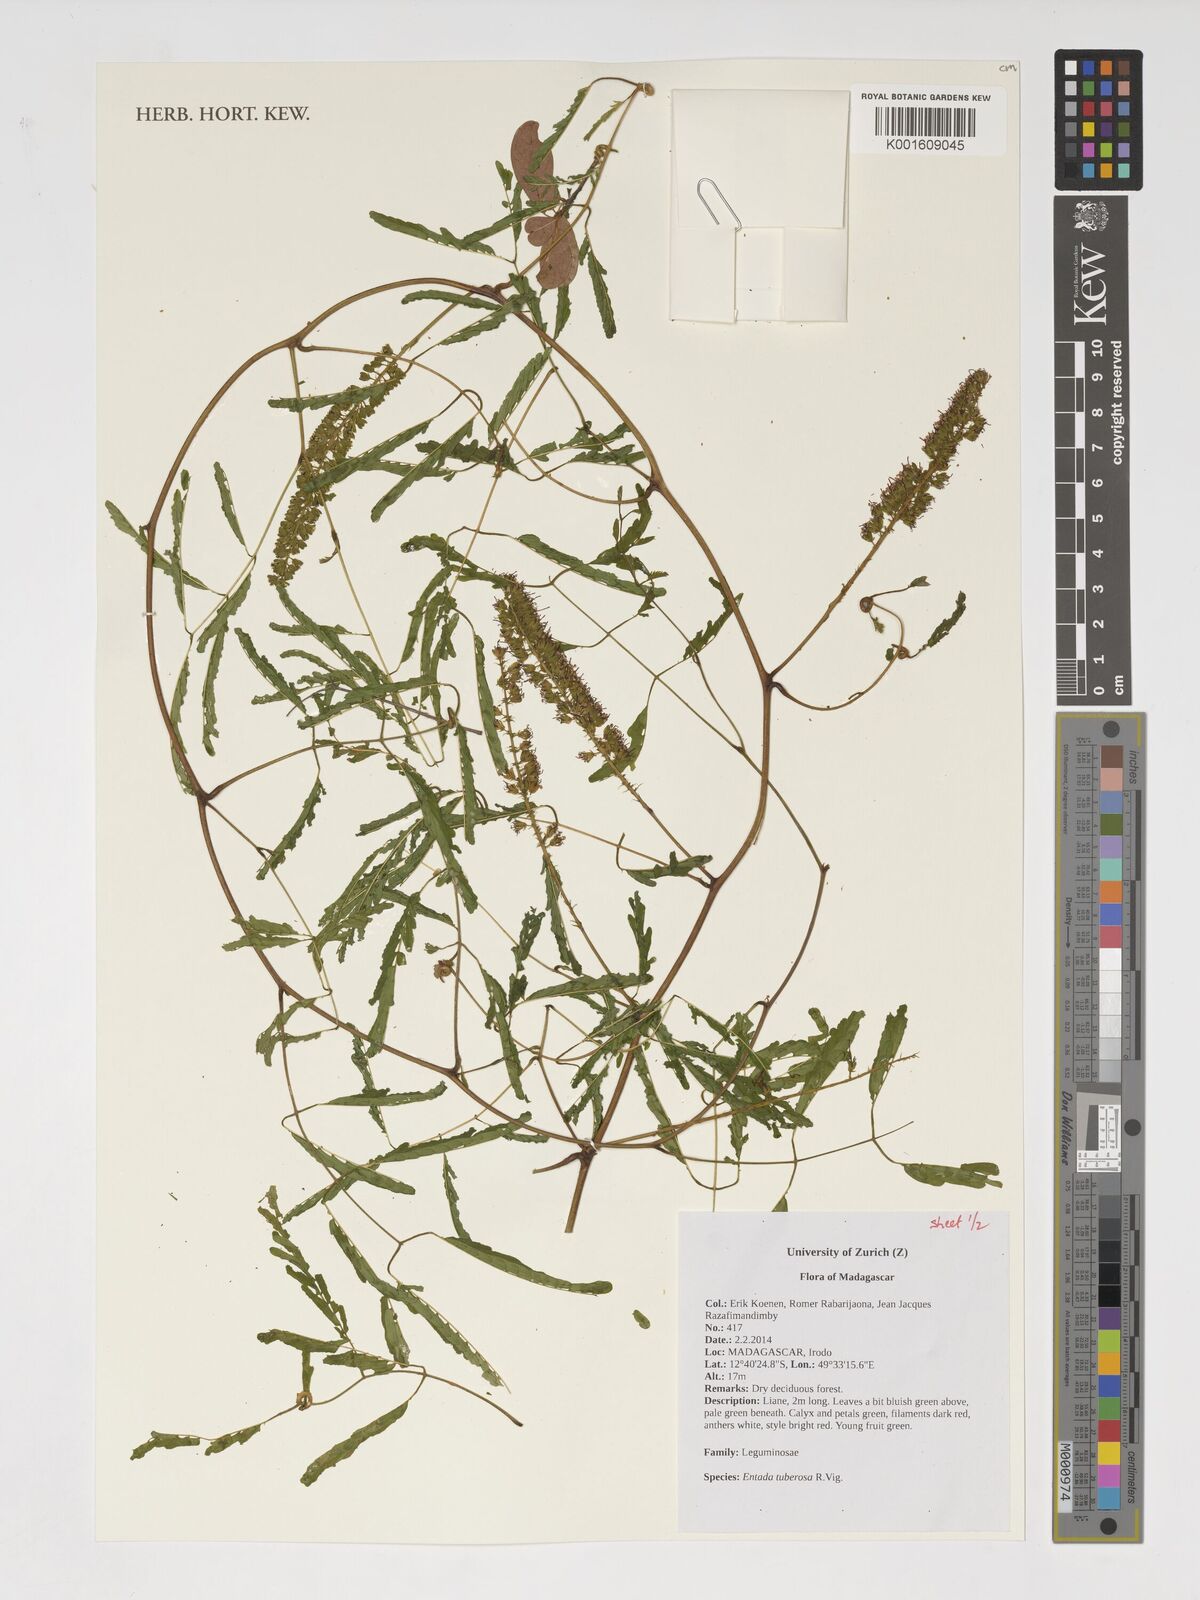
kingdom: Plantae
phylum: Tracheophyta
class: Magnoliopsida
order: Fabales
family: Fabaceae
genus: Entada
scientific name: Entada tuberosa
